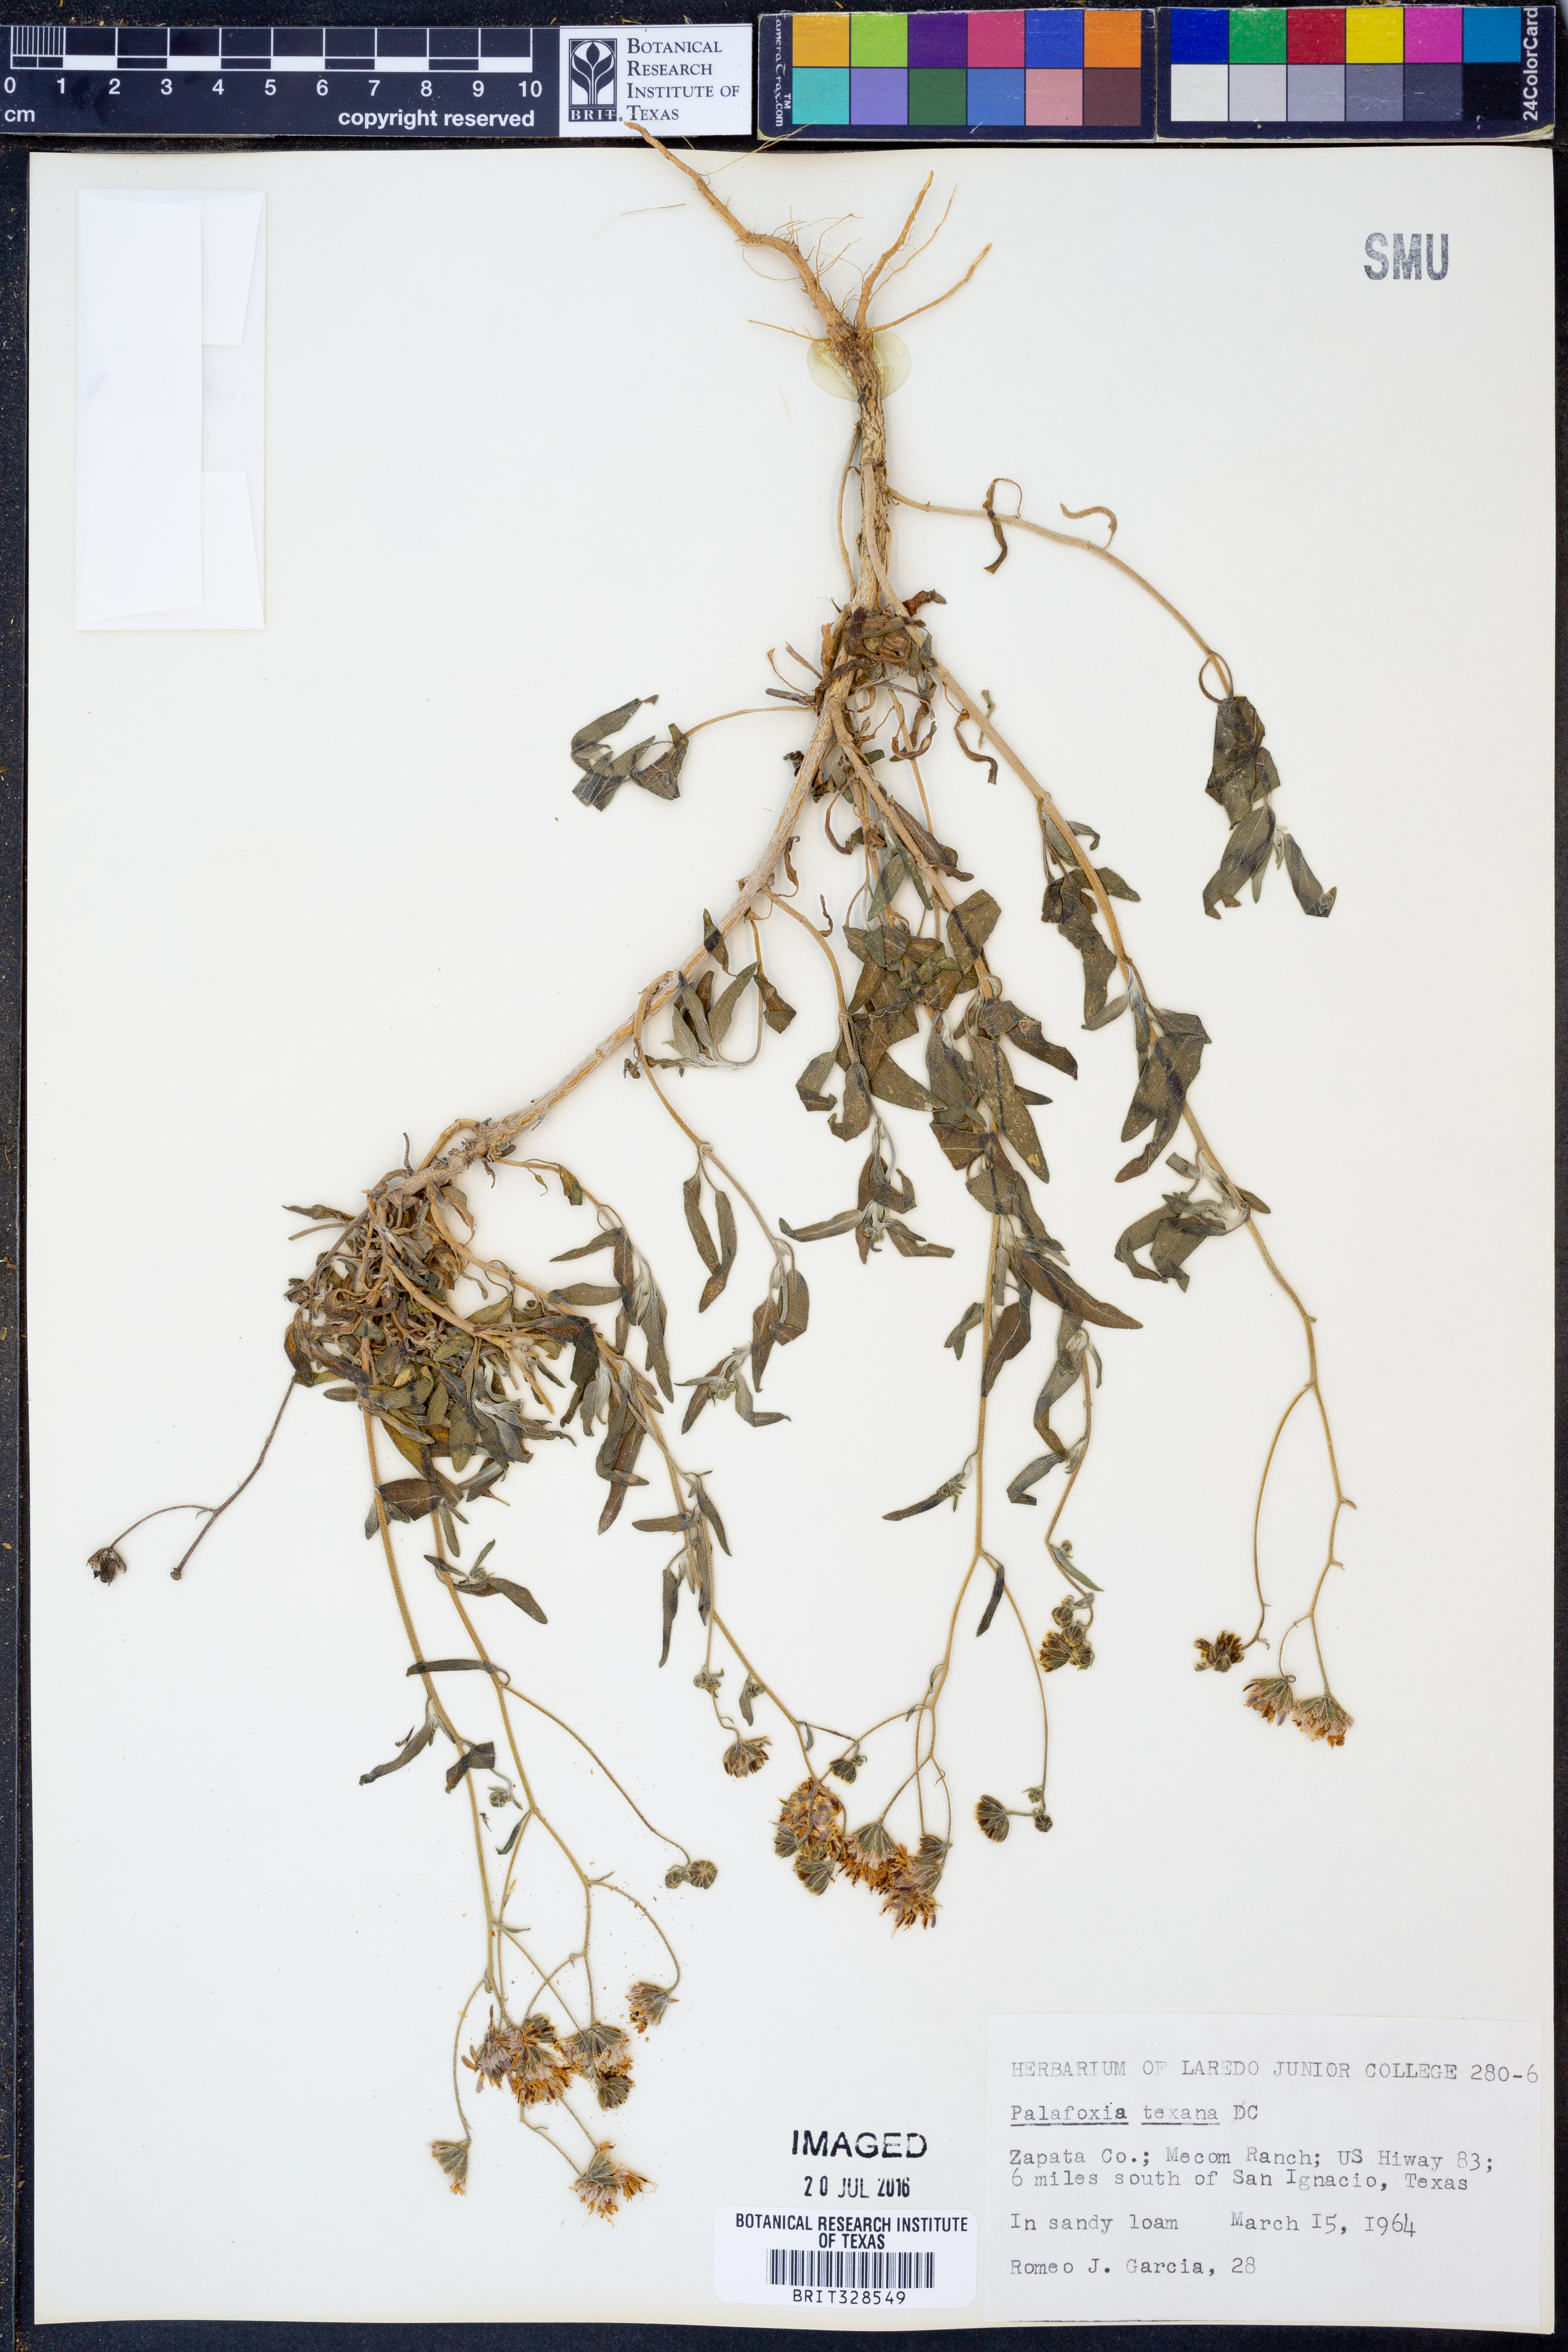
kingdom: Plantae
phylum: Tracheophyta
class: Magnoliopsida
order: Asterales
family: Asteraceae
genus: Palafoxia
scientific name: Palafoxia texana
